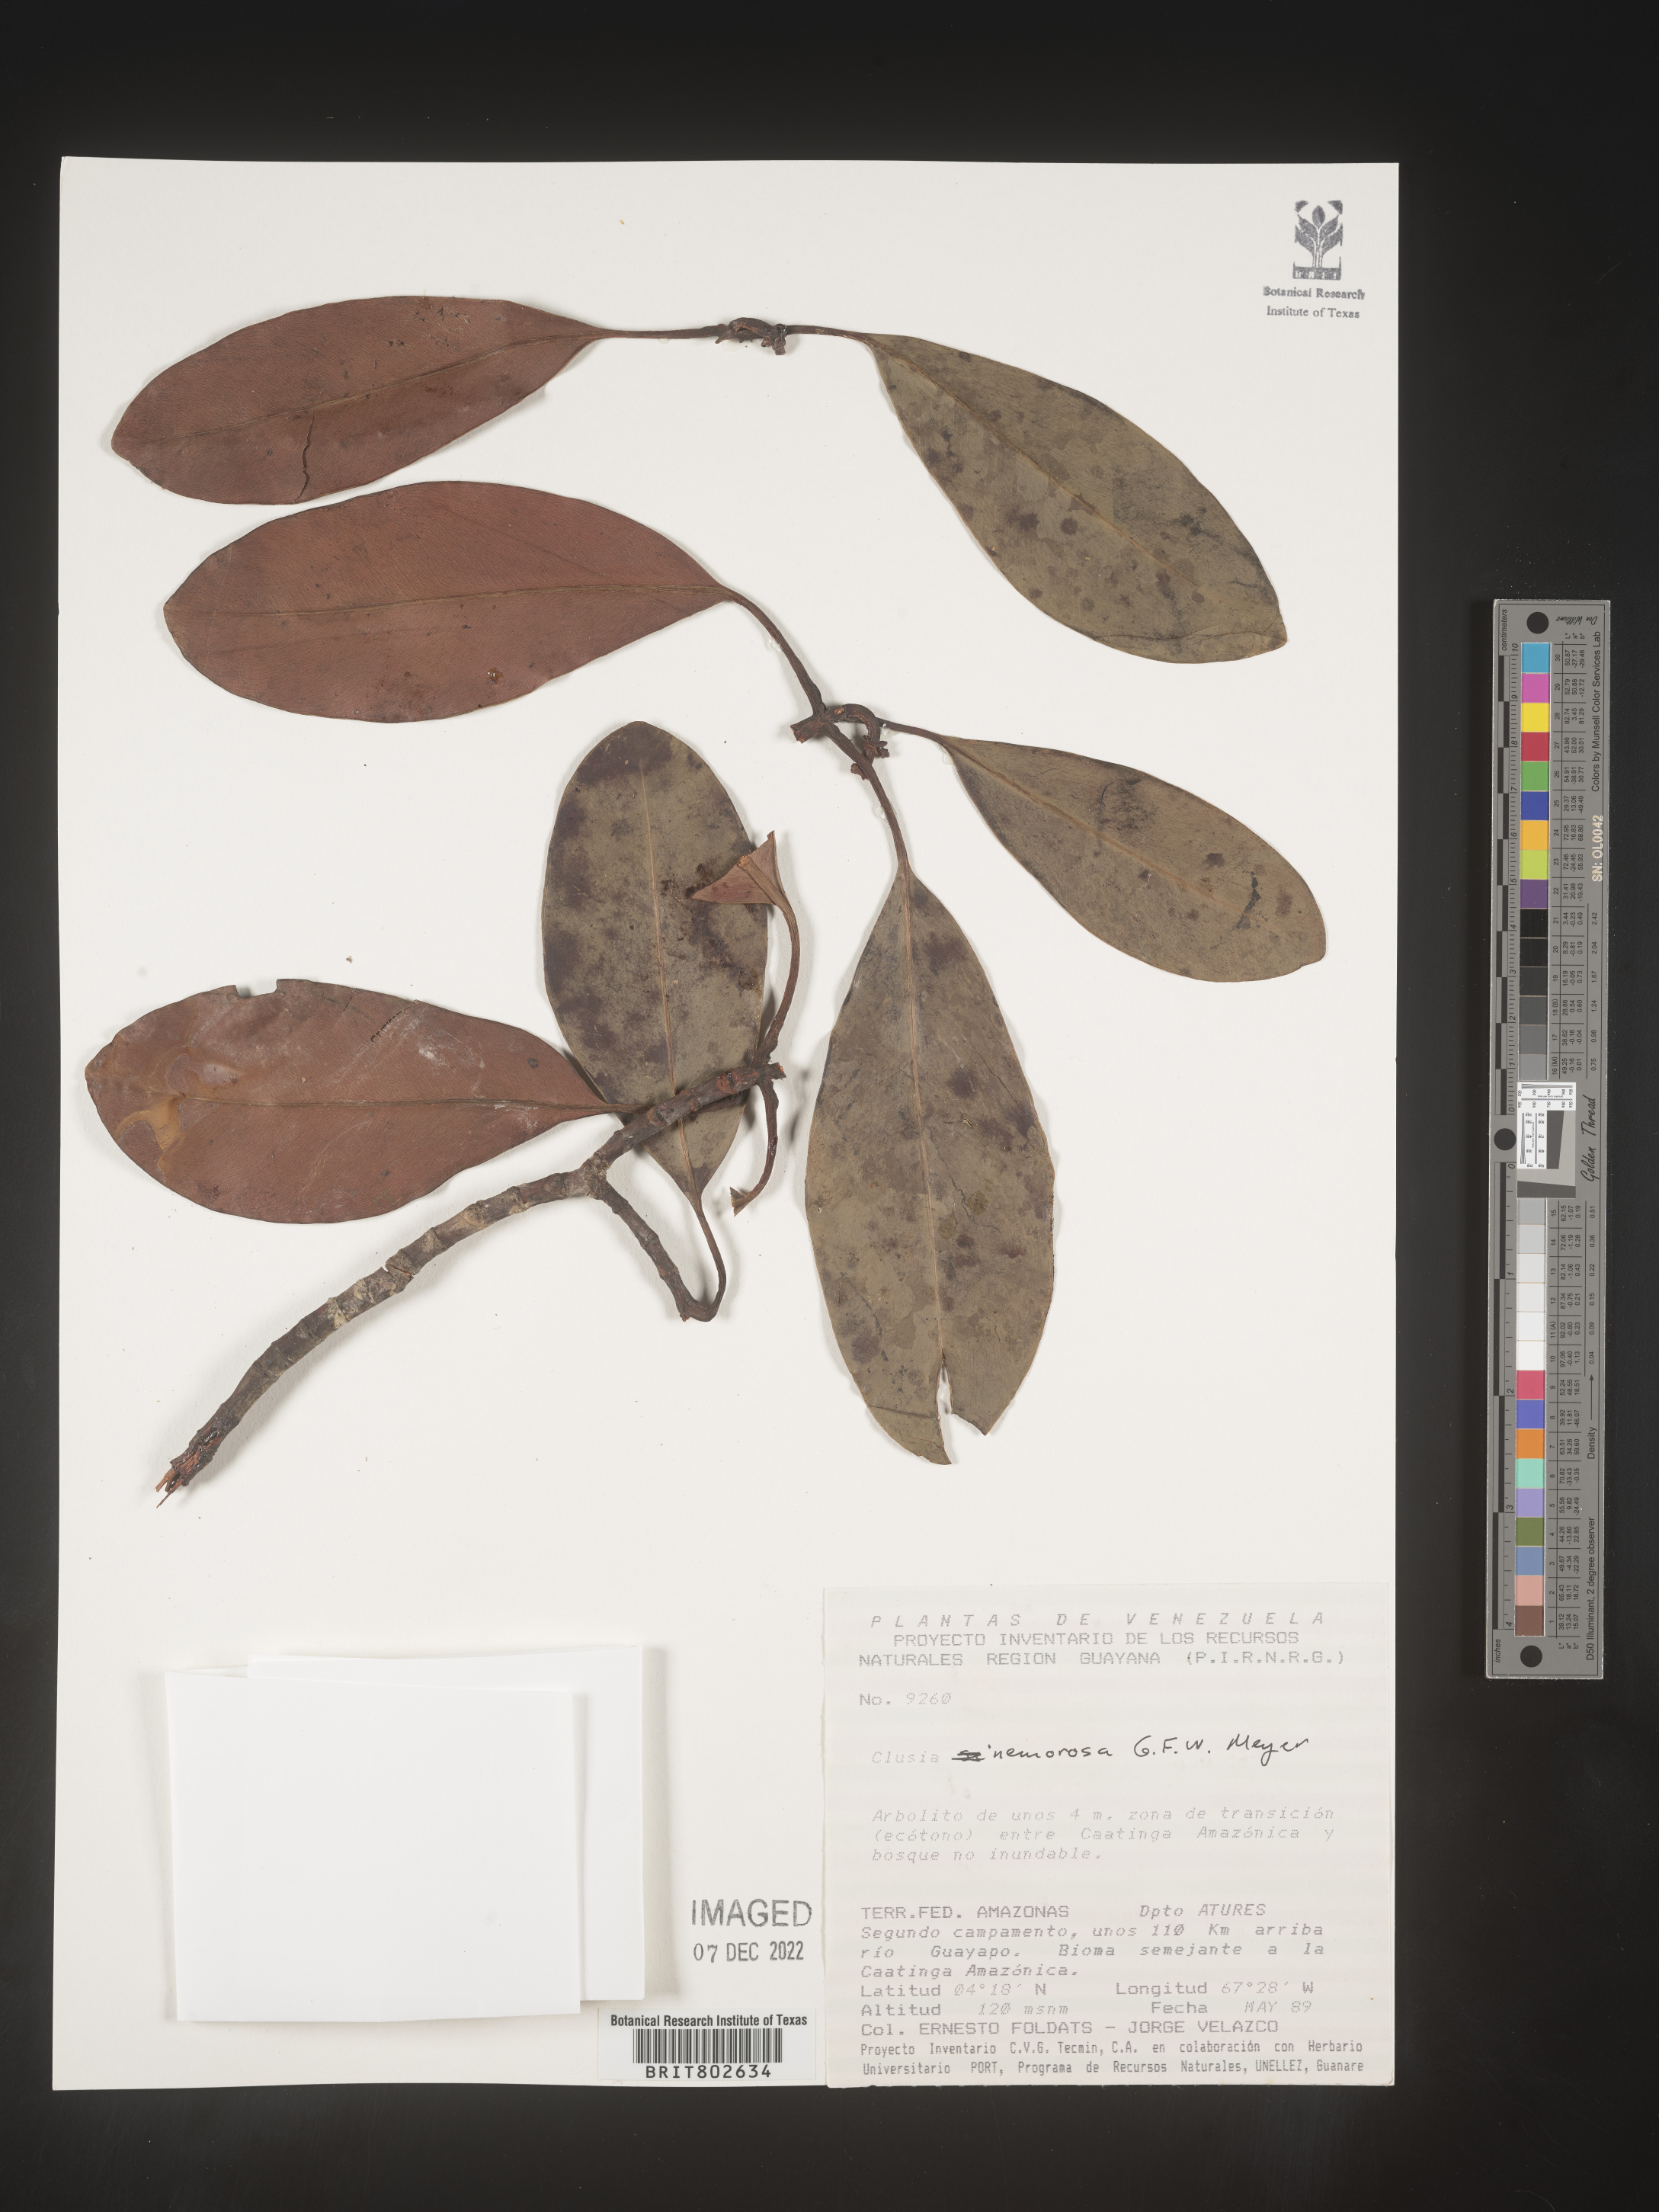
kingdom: Plantae
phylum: Tracheophyta
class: Magnoliopsida
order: Malpighiales
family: Clusiaceae
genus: Clusia
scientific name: Clusia nemorosa
